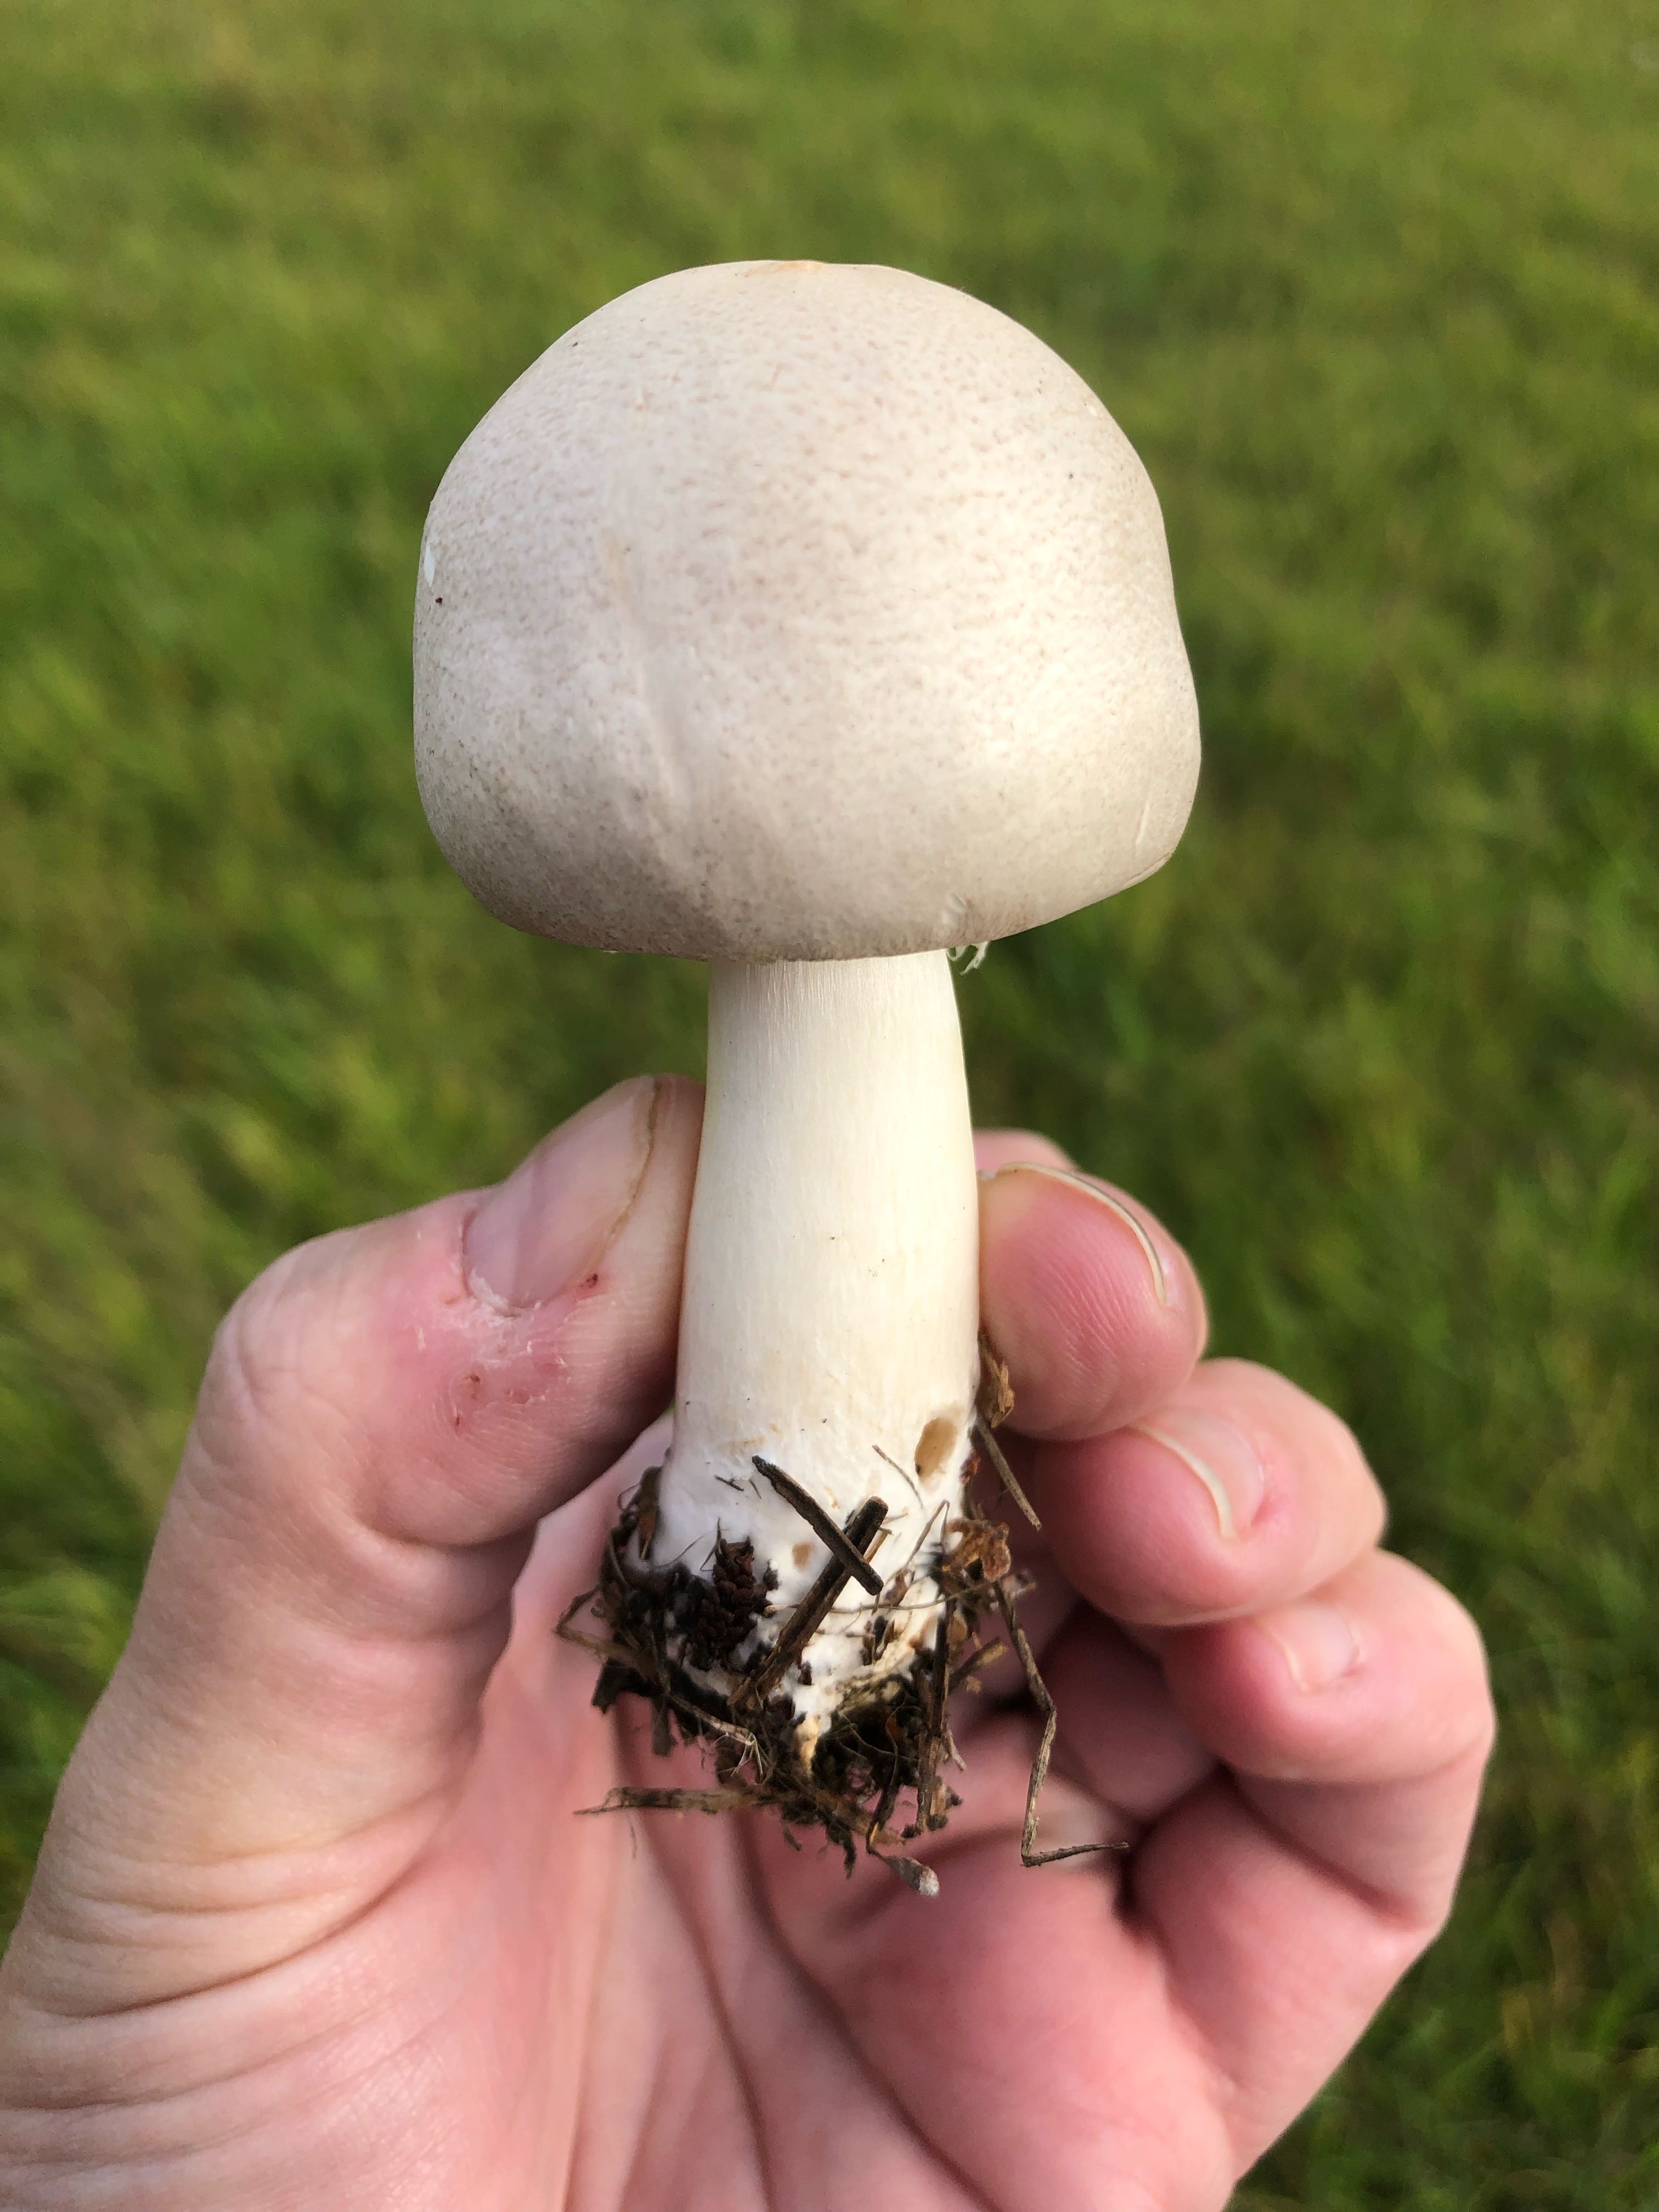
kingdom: Fungi
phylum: Basidiomycota
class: Agaricomycetes
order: Agaricales
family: Agaricaceae
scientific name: Agaricaceae
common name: champignonfamilien
